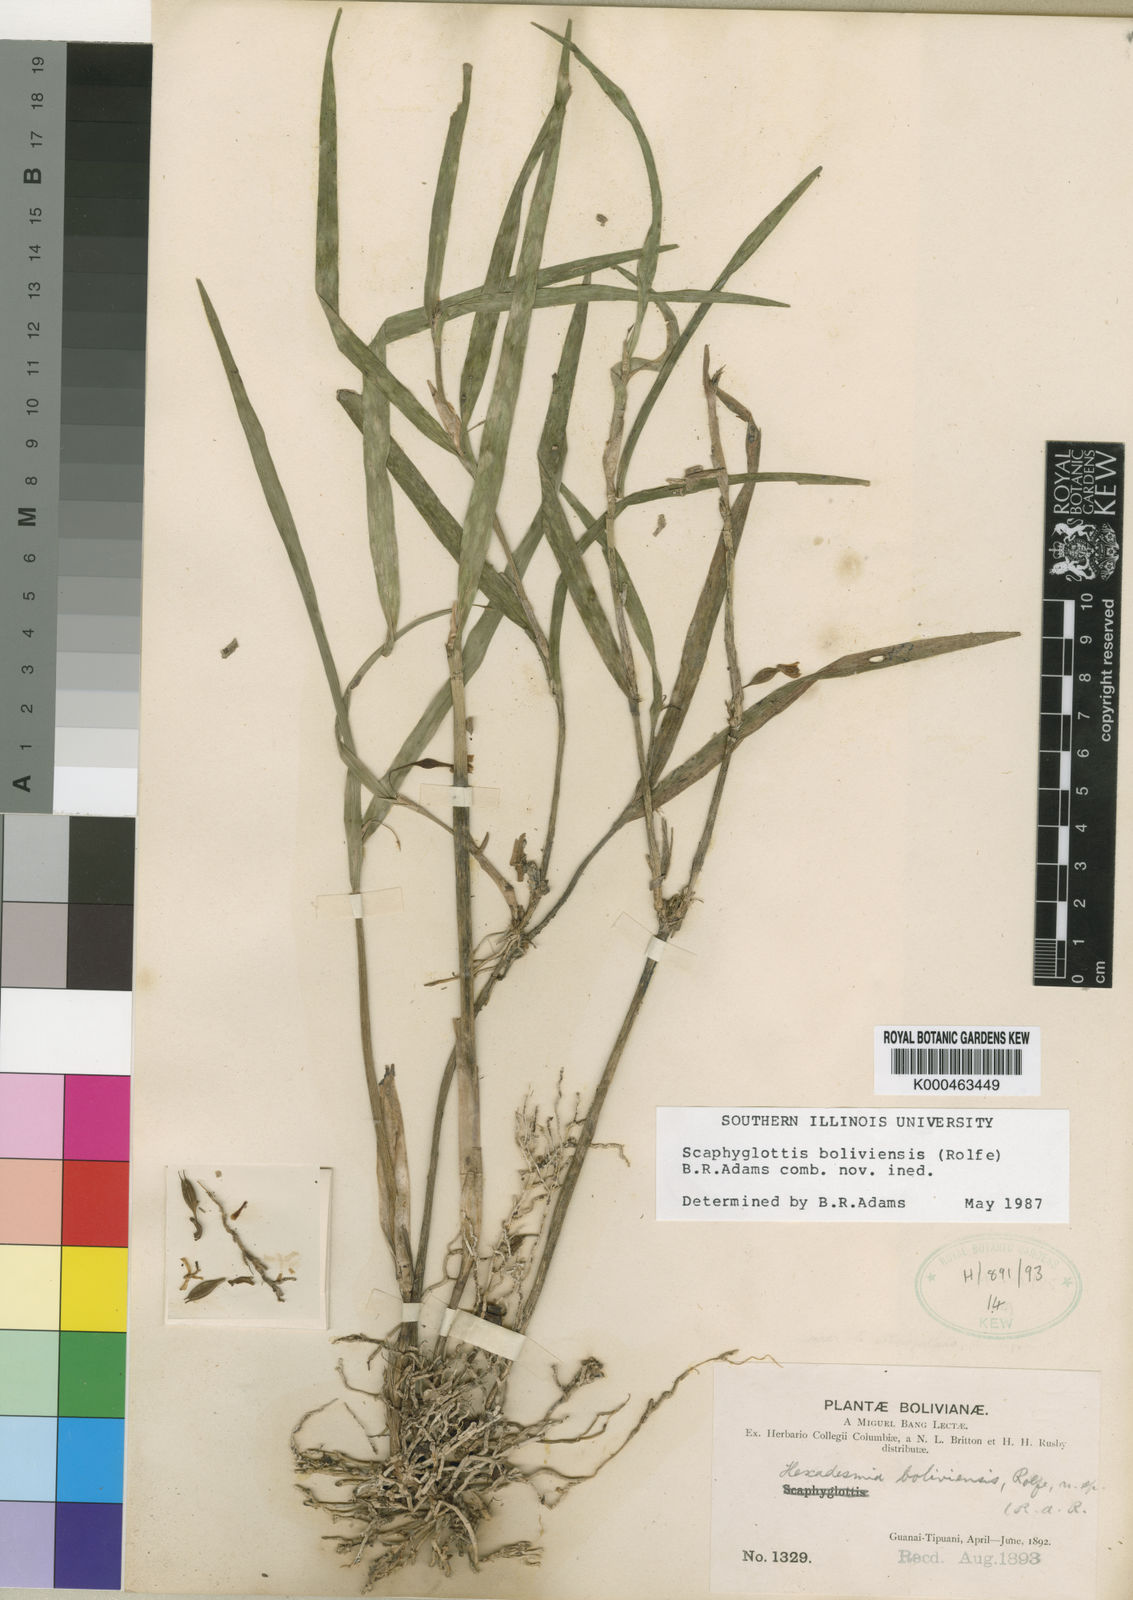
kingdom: Plantae
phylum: Tracheophyta
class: Liliopsida
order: Asparagales
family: Orchidaceae
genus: Scaphyglottis
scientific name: Scaphyglottis boliviensis
